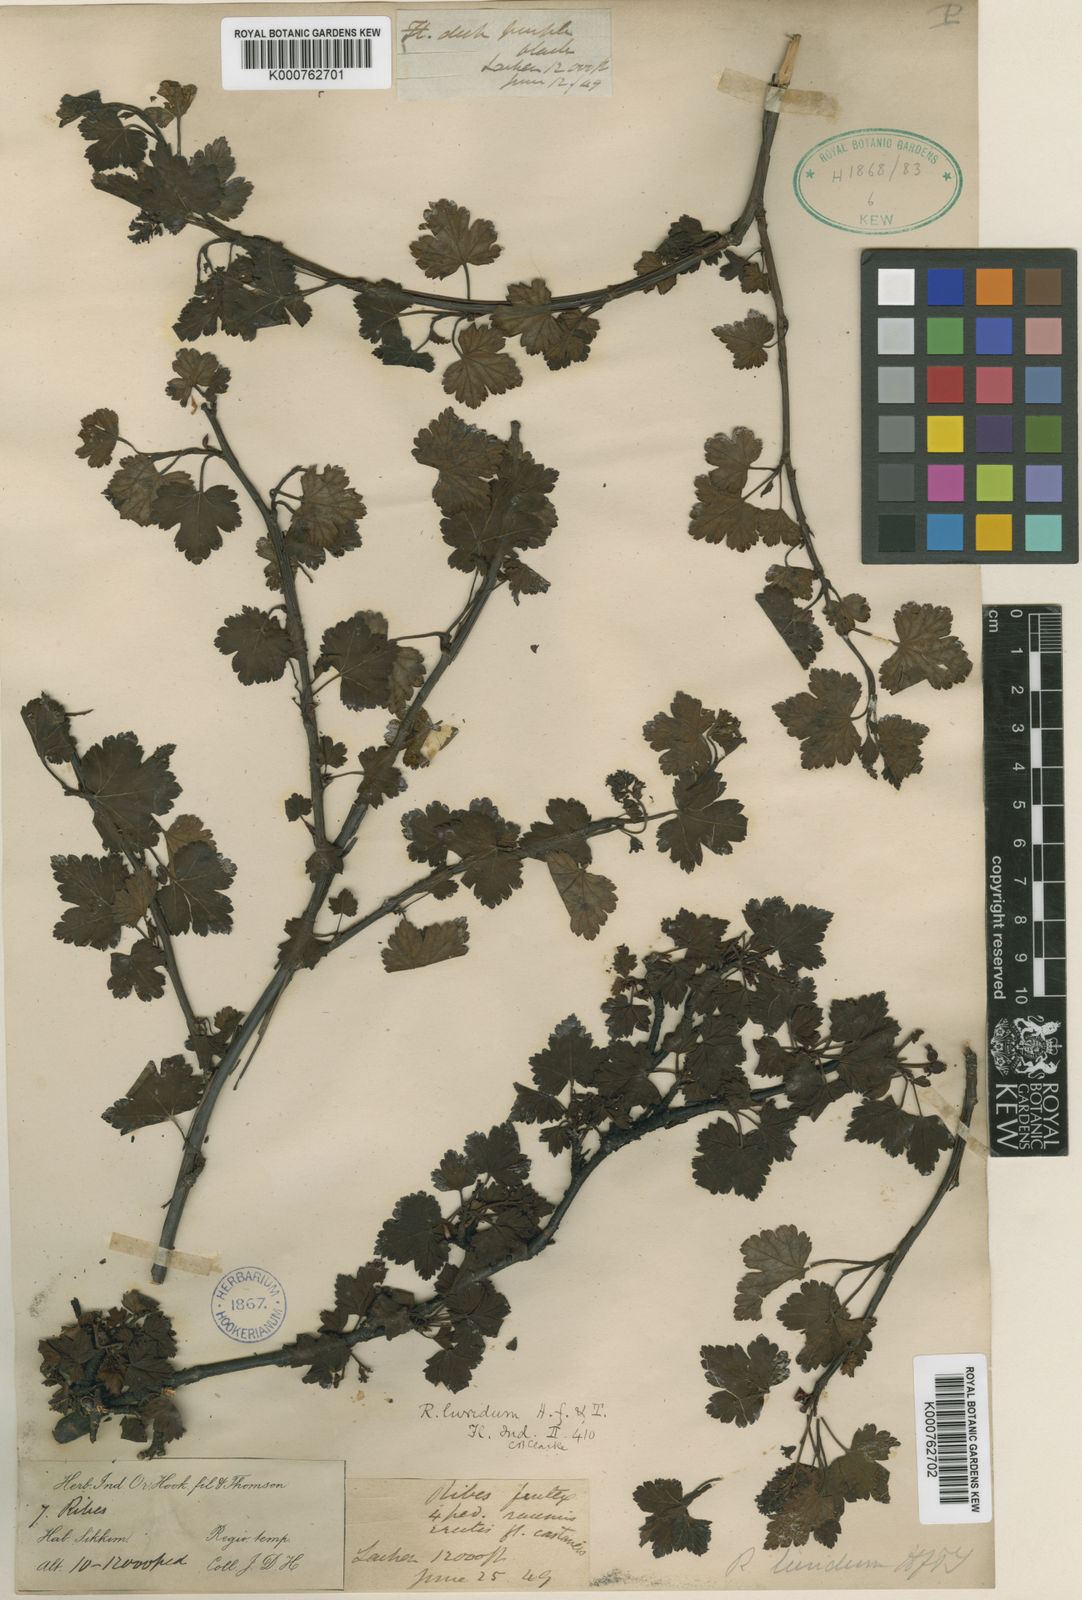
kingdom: Plantae
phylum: Tracheophyta
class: Magnoliopsida
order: Saxifragales
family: Grossulariaceae
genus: Ribes
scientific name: Ribes luridum
